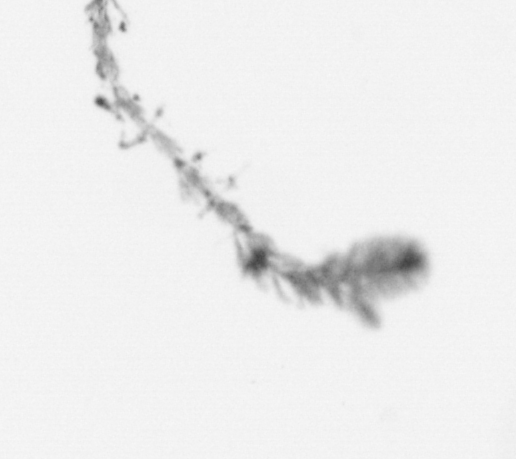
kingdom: Chromista
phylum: Ochrophyta
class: Bacillariophyceae
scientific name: Bacillariophyceae
